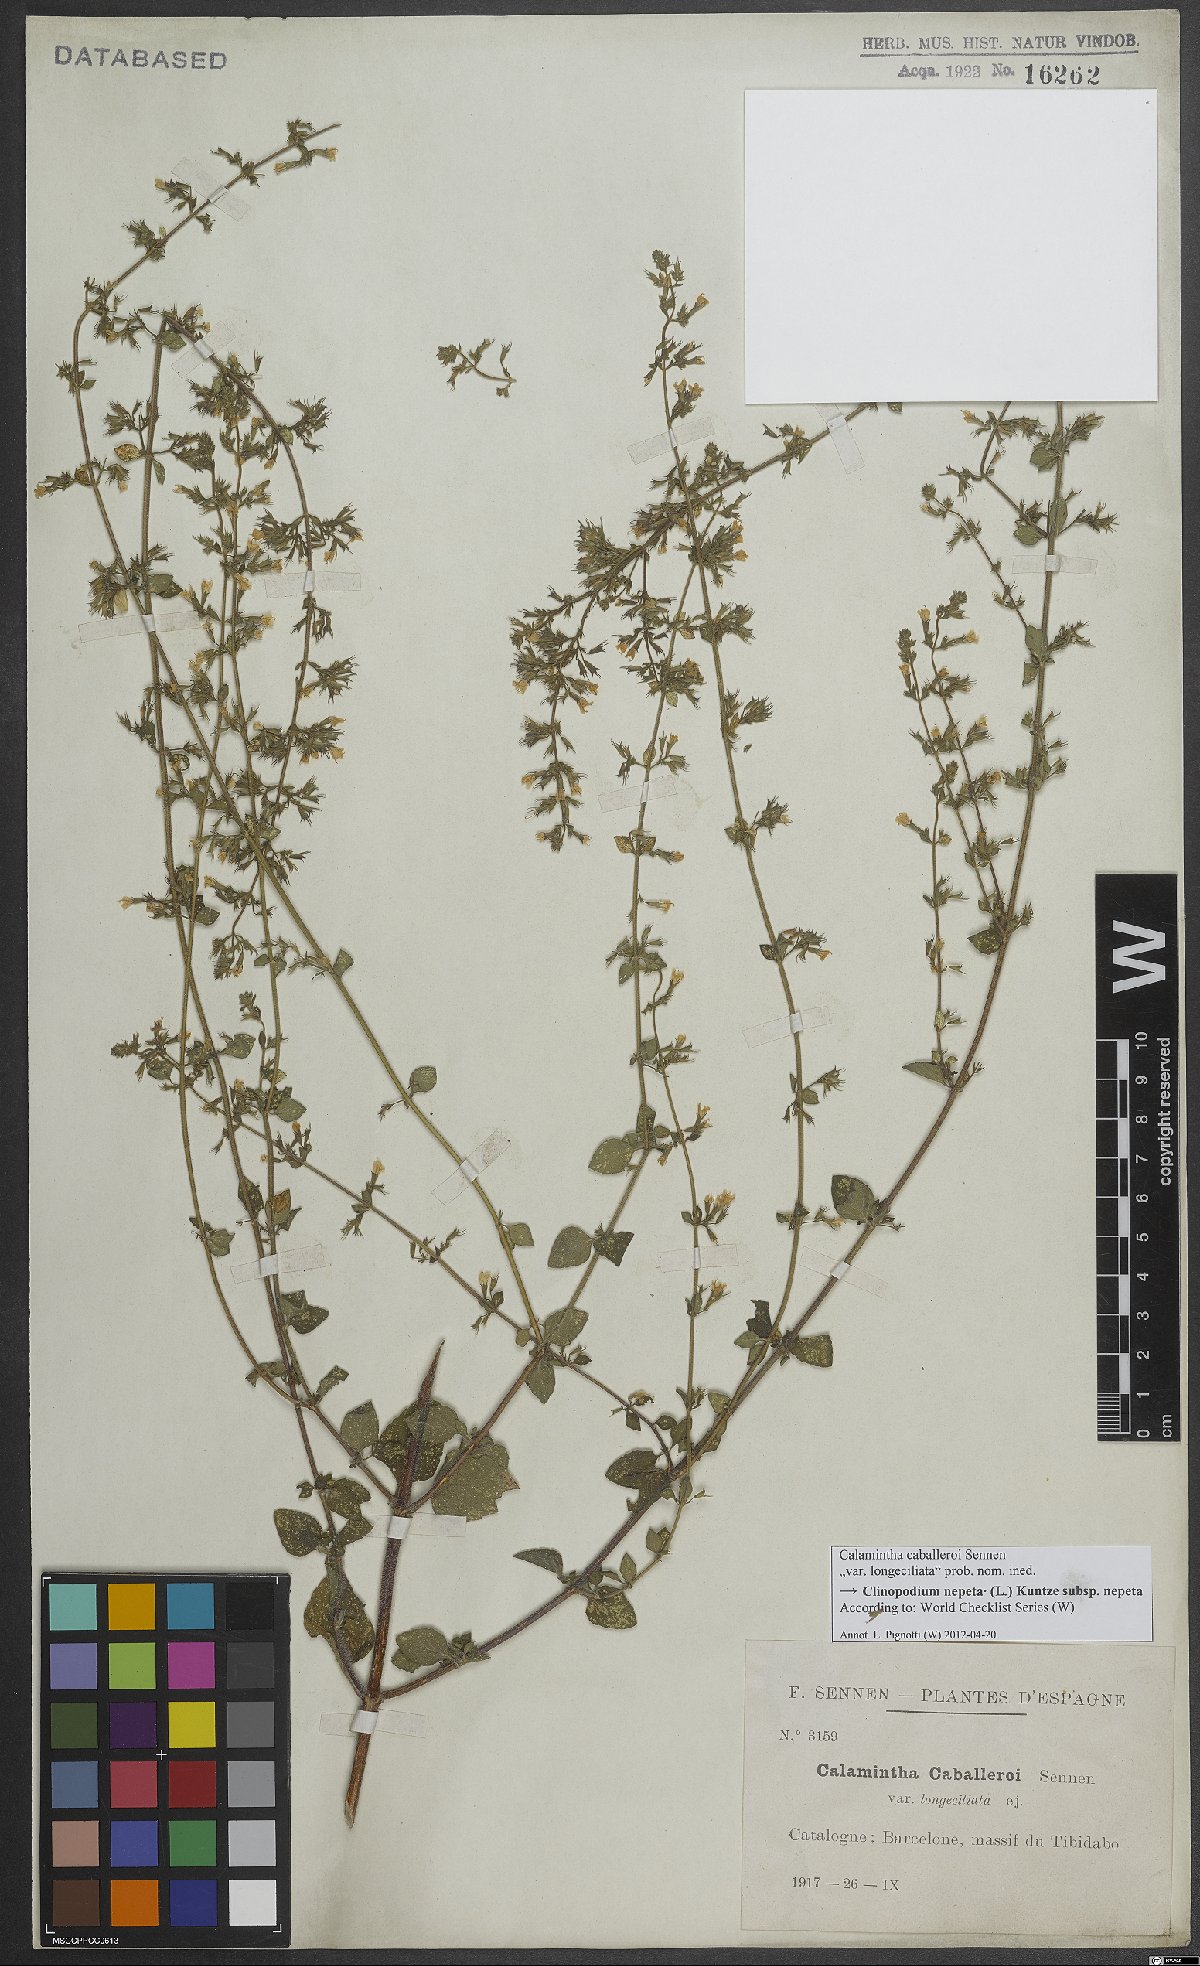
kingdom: Plantae
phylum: Tracheophyta
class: Magnoliopsida
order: Lamiales
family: Lamiaceae
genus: Clinopodium
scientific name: Clinopodium nepeta
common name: Lesser calamint
